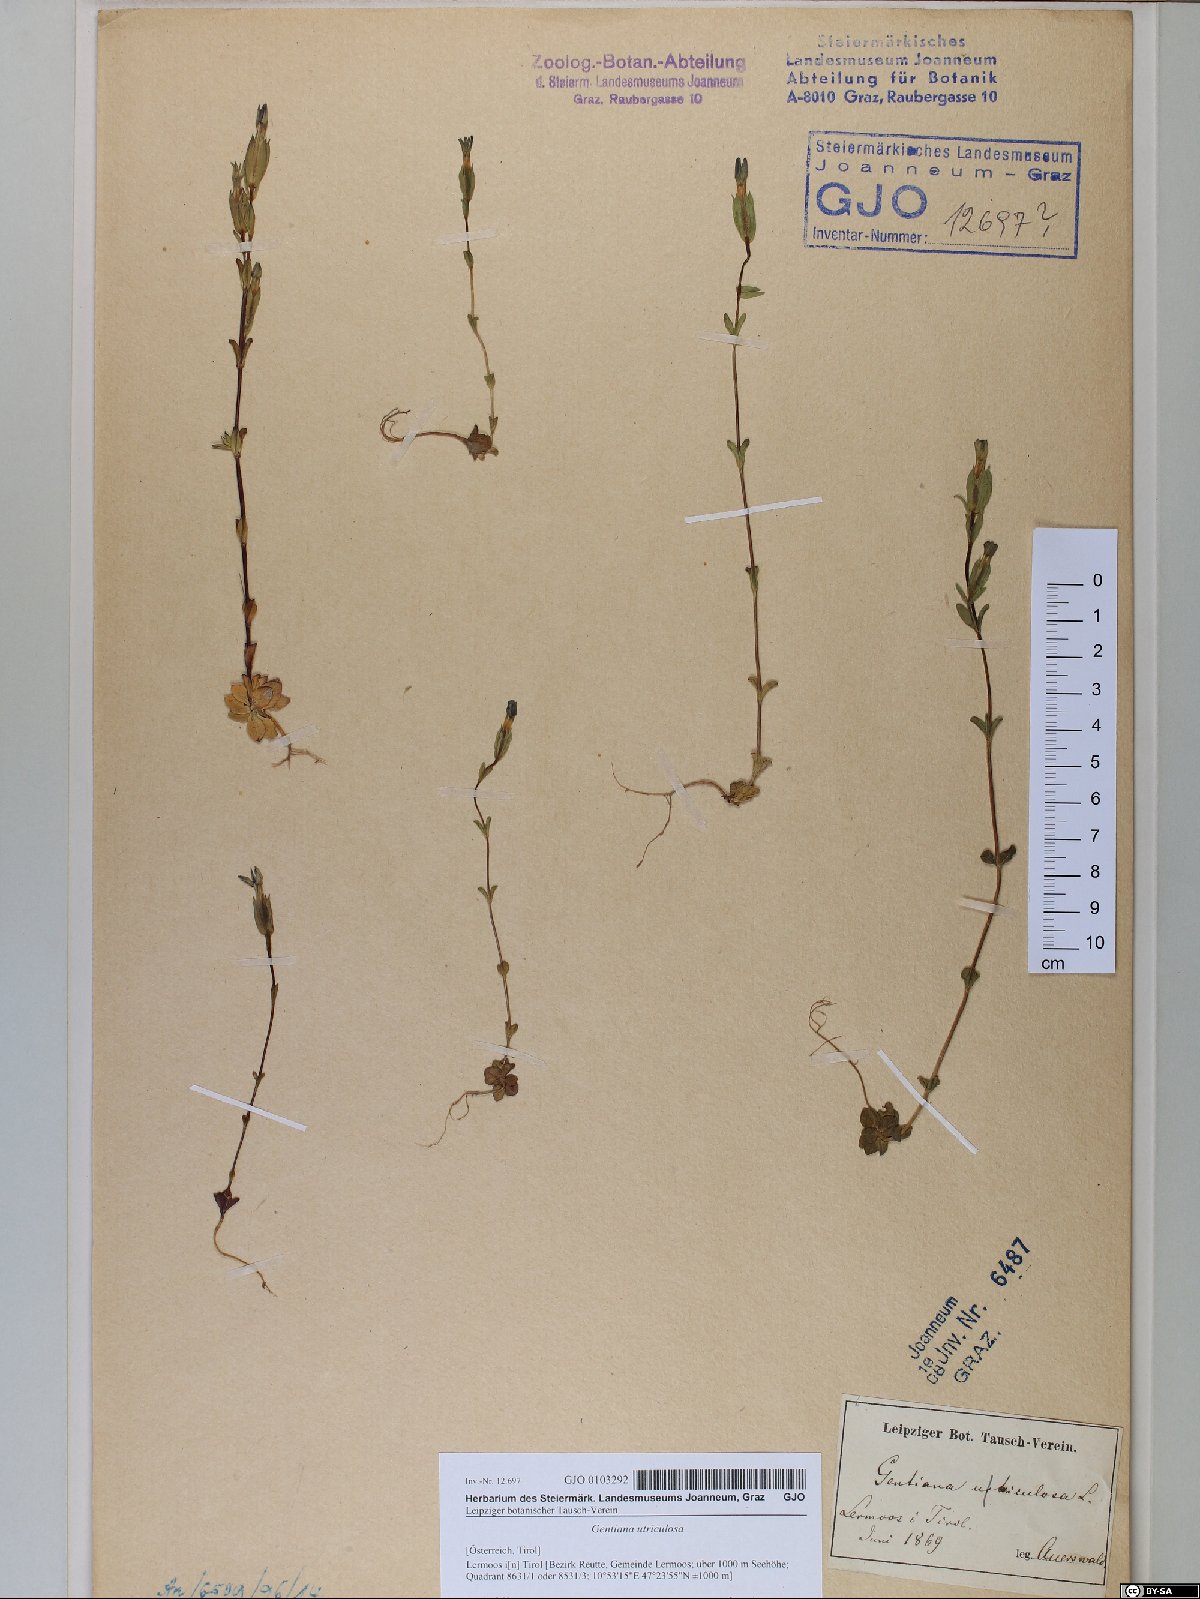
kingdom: Plantae
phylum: Tracheophyta
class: Magnoliopsida
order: Gentianales
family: Gentianaceae
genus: Gentiana
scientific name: Gentiana utriculosa
